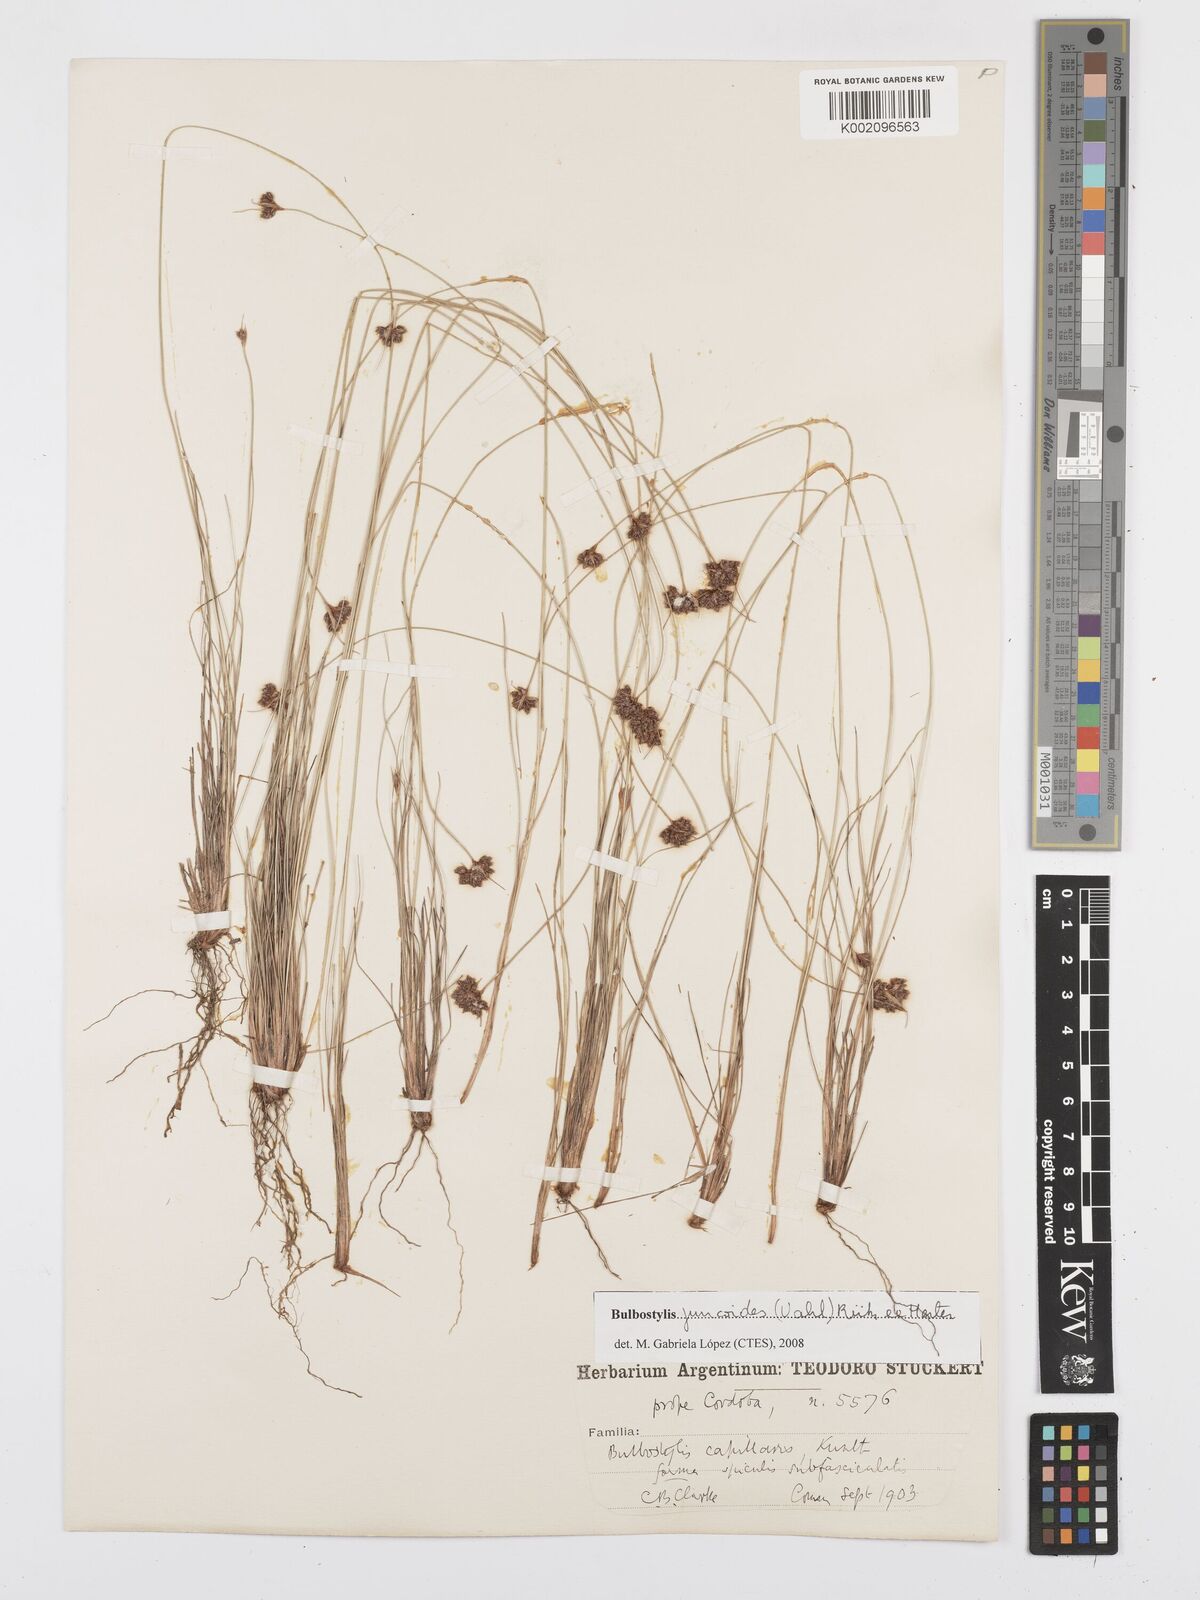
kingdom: Plantae
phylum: Tracheophyta
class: Liliopsida
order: Poales
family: Cyperaceae
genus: Bulbostylis
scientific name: Bulbostylis juncoides
